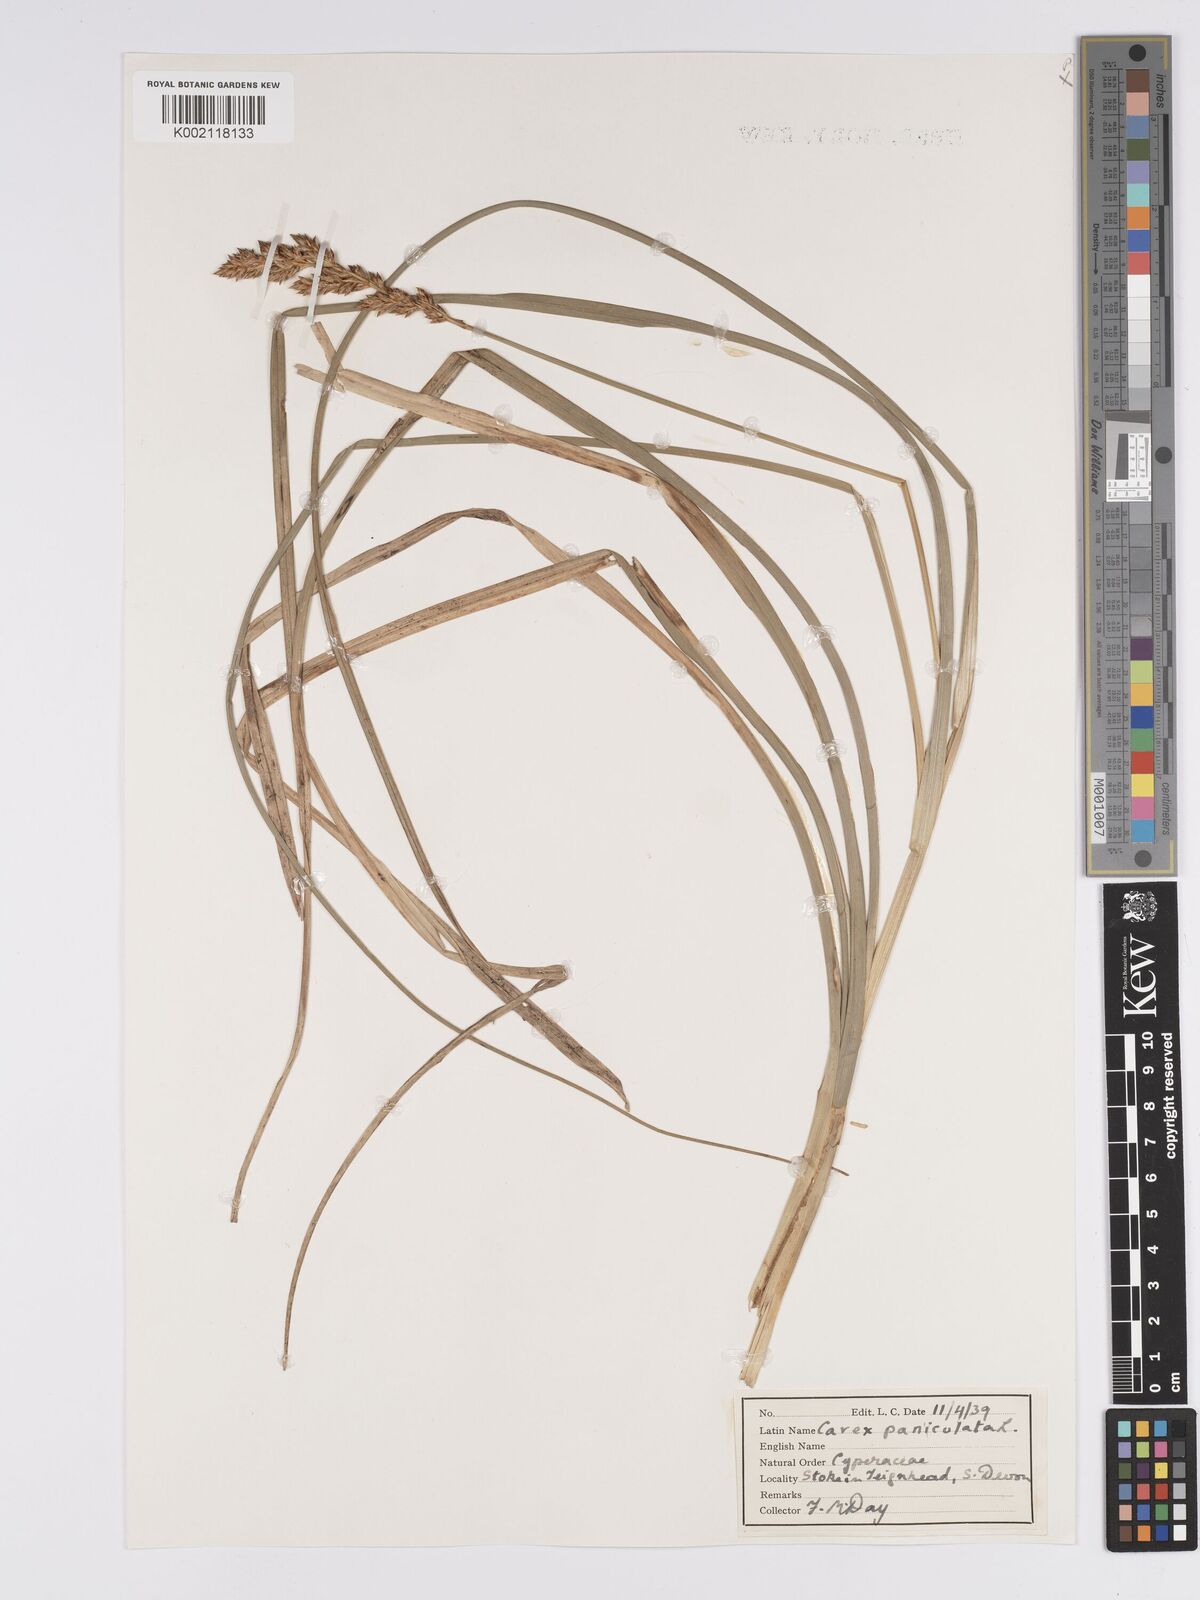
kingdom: Plantae
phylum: Tracheophyta
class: Liliopsida
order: Poales
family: Cyperaceae
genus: Carex
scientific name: Carex paniculata
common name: Greater tussock-sedge
